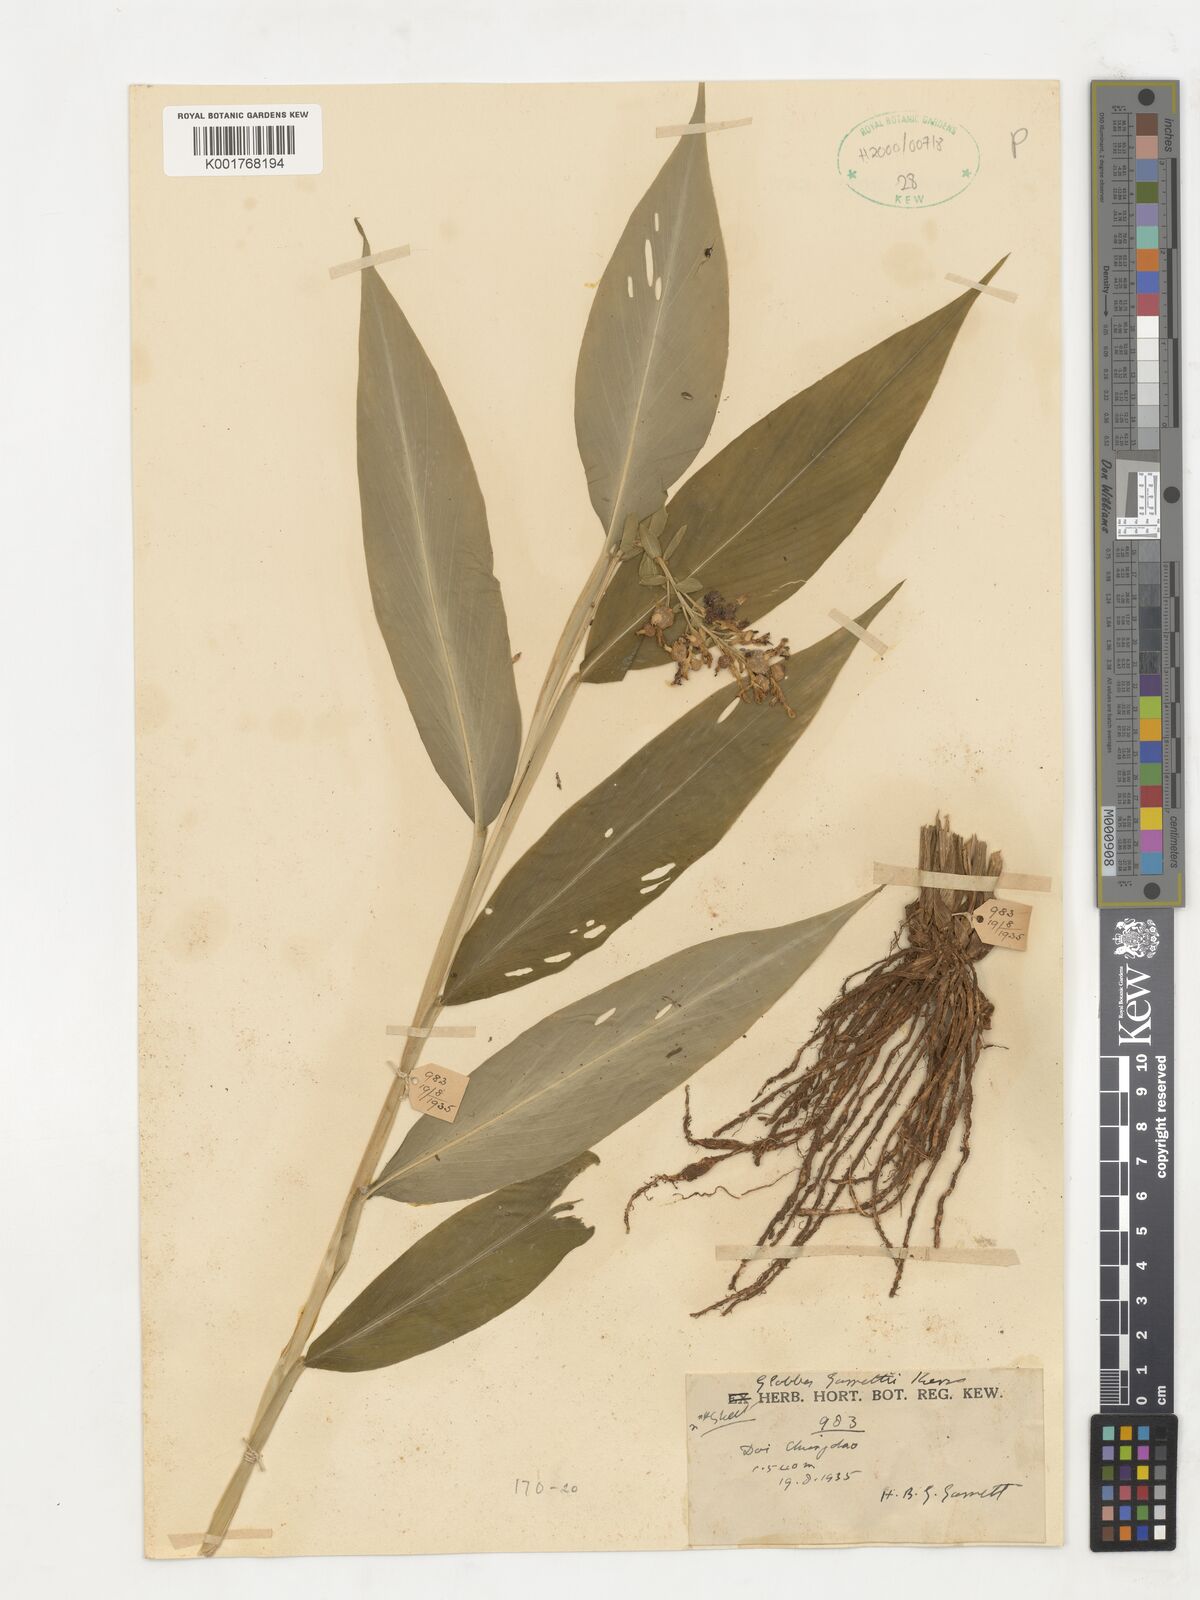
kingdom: Plantae
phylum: Tracheophyta
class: Liliopsida
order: Zingiberales
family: Zingiberaceae
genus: Globba
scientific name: Globba garrettii
